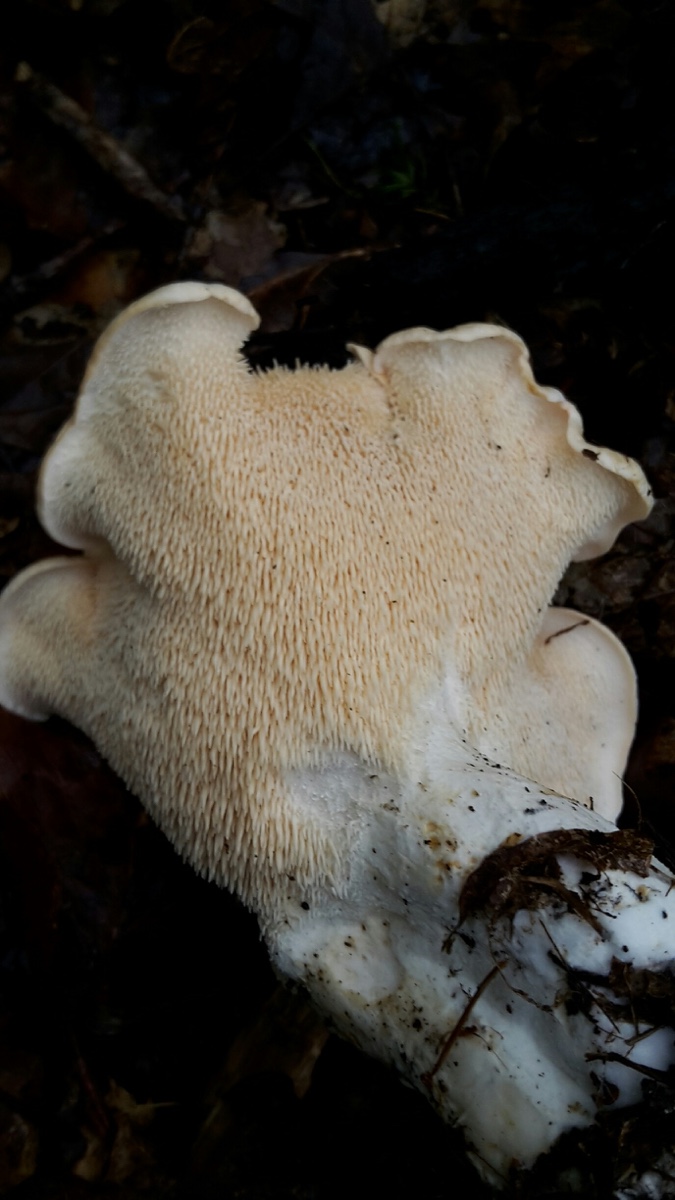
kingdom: Fungi
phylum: Basidiomycota
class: Agaricomycetes
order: Cantharellales
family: Hydnaceae
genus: Hydnum
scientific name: Hydnum repandum
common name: almindelig pigsvamp
